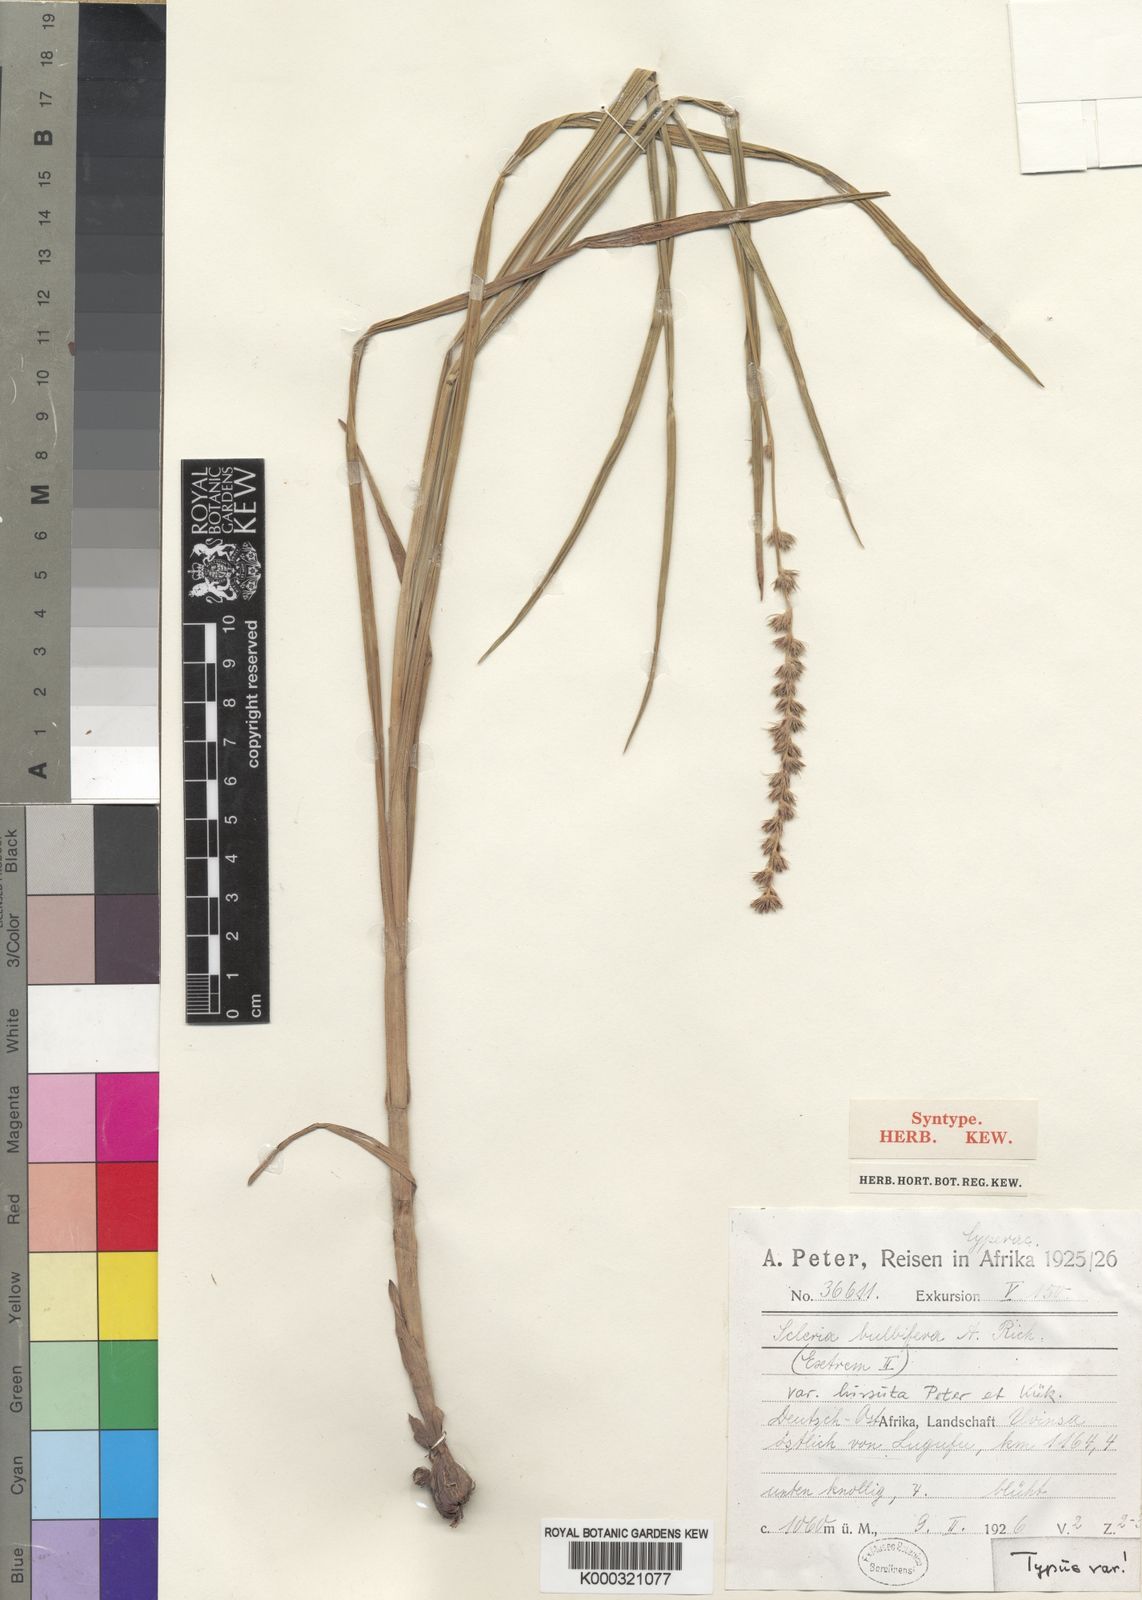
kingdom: Plantae
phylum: Tracheophyta
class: Liliopsida
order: Poales
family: Cyperaceae
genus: Scleria
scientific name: Scleria bulbifera
